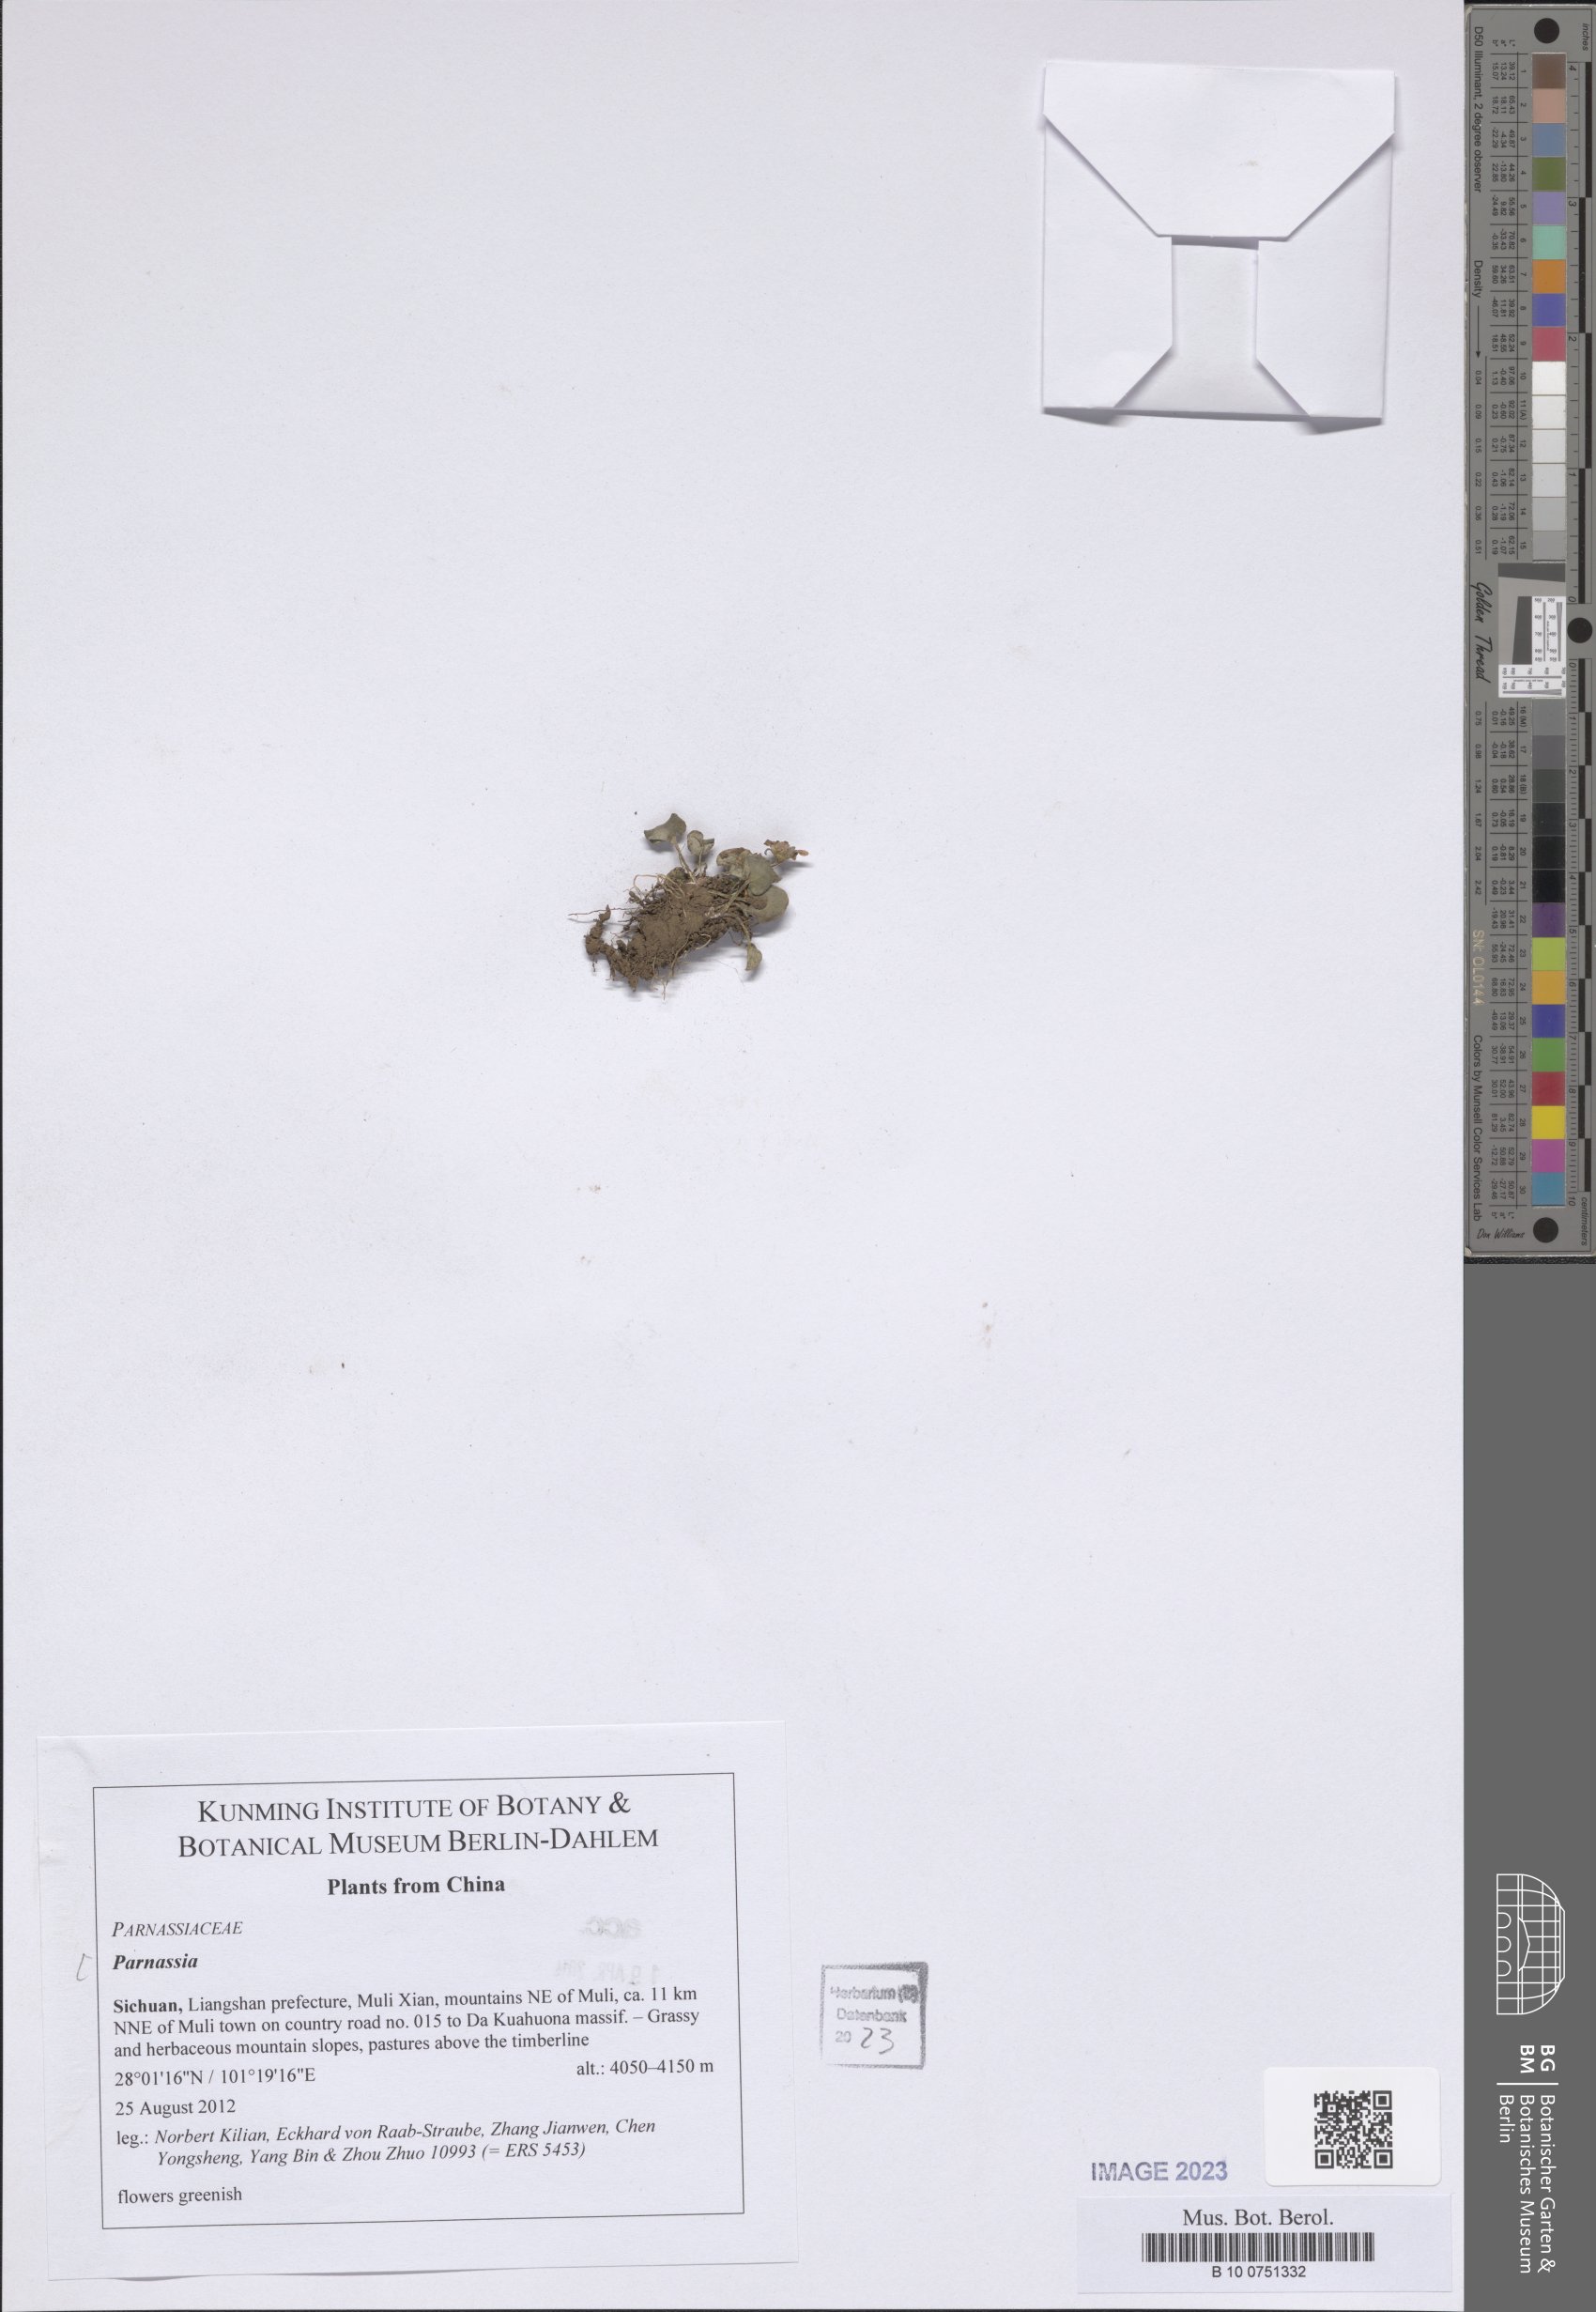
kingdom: Plantae
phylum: Tracheophyta
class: Magnoliopsida
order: Celastrales
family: Parnassiaceae
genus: Parnassia
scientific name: Parnassia
